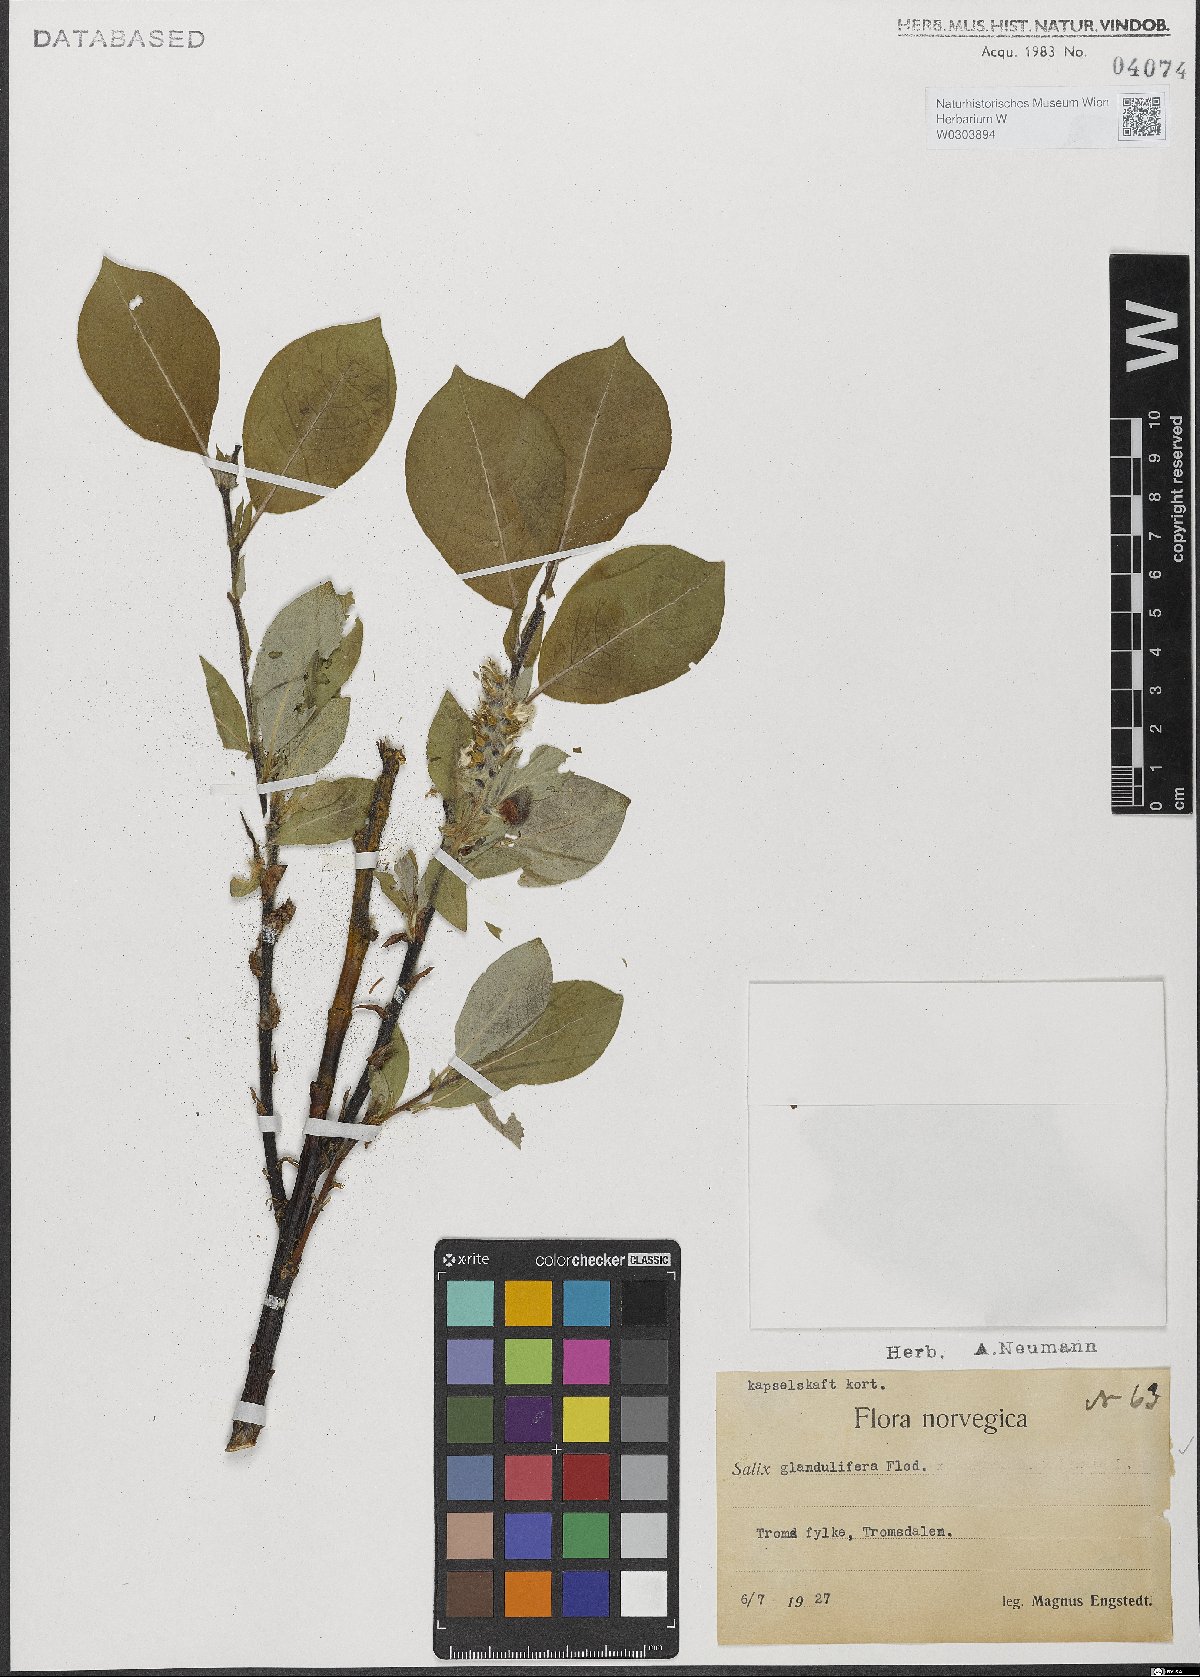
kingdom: Plantae
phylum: Tracheophyta
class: Magnoliopsida
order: Malpighiales
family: Salicaceae
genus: Salix
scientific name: Salix lanata
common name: Woolly willow
